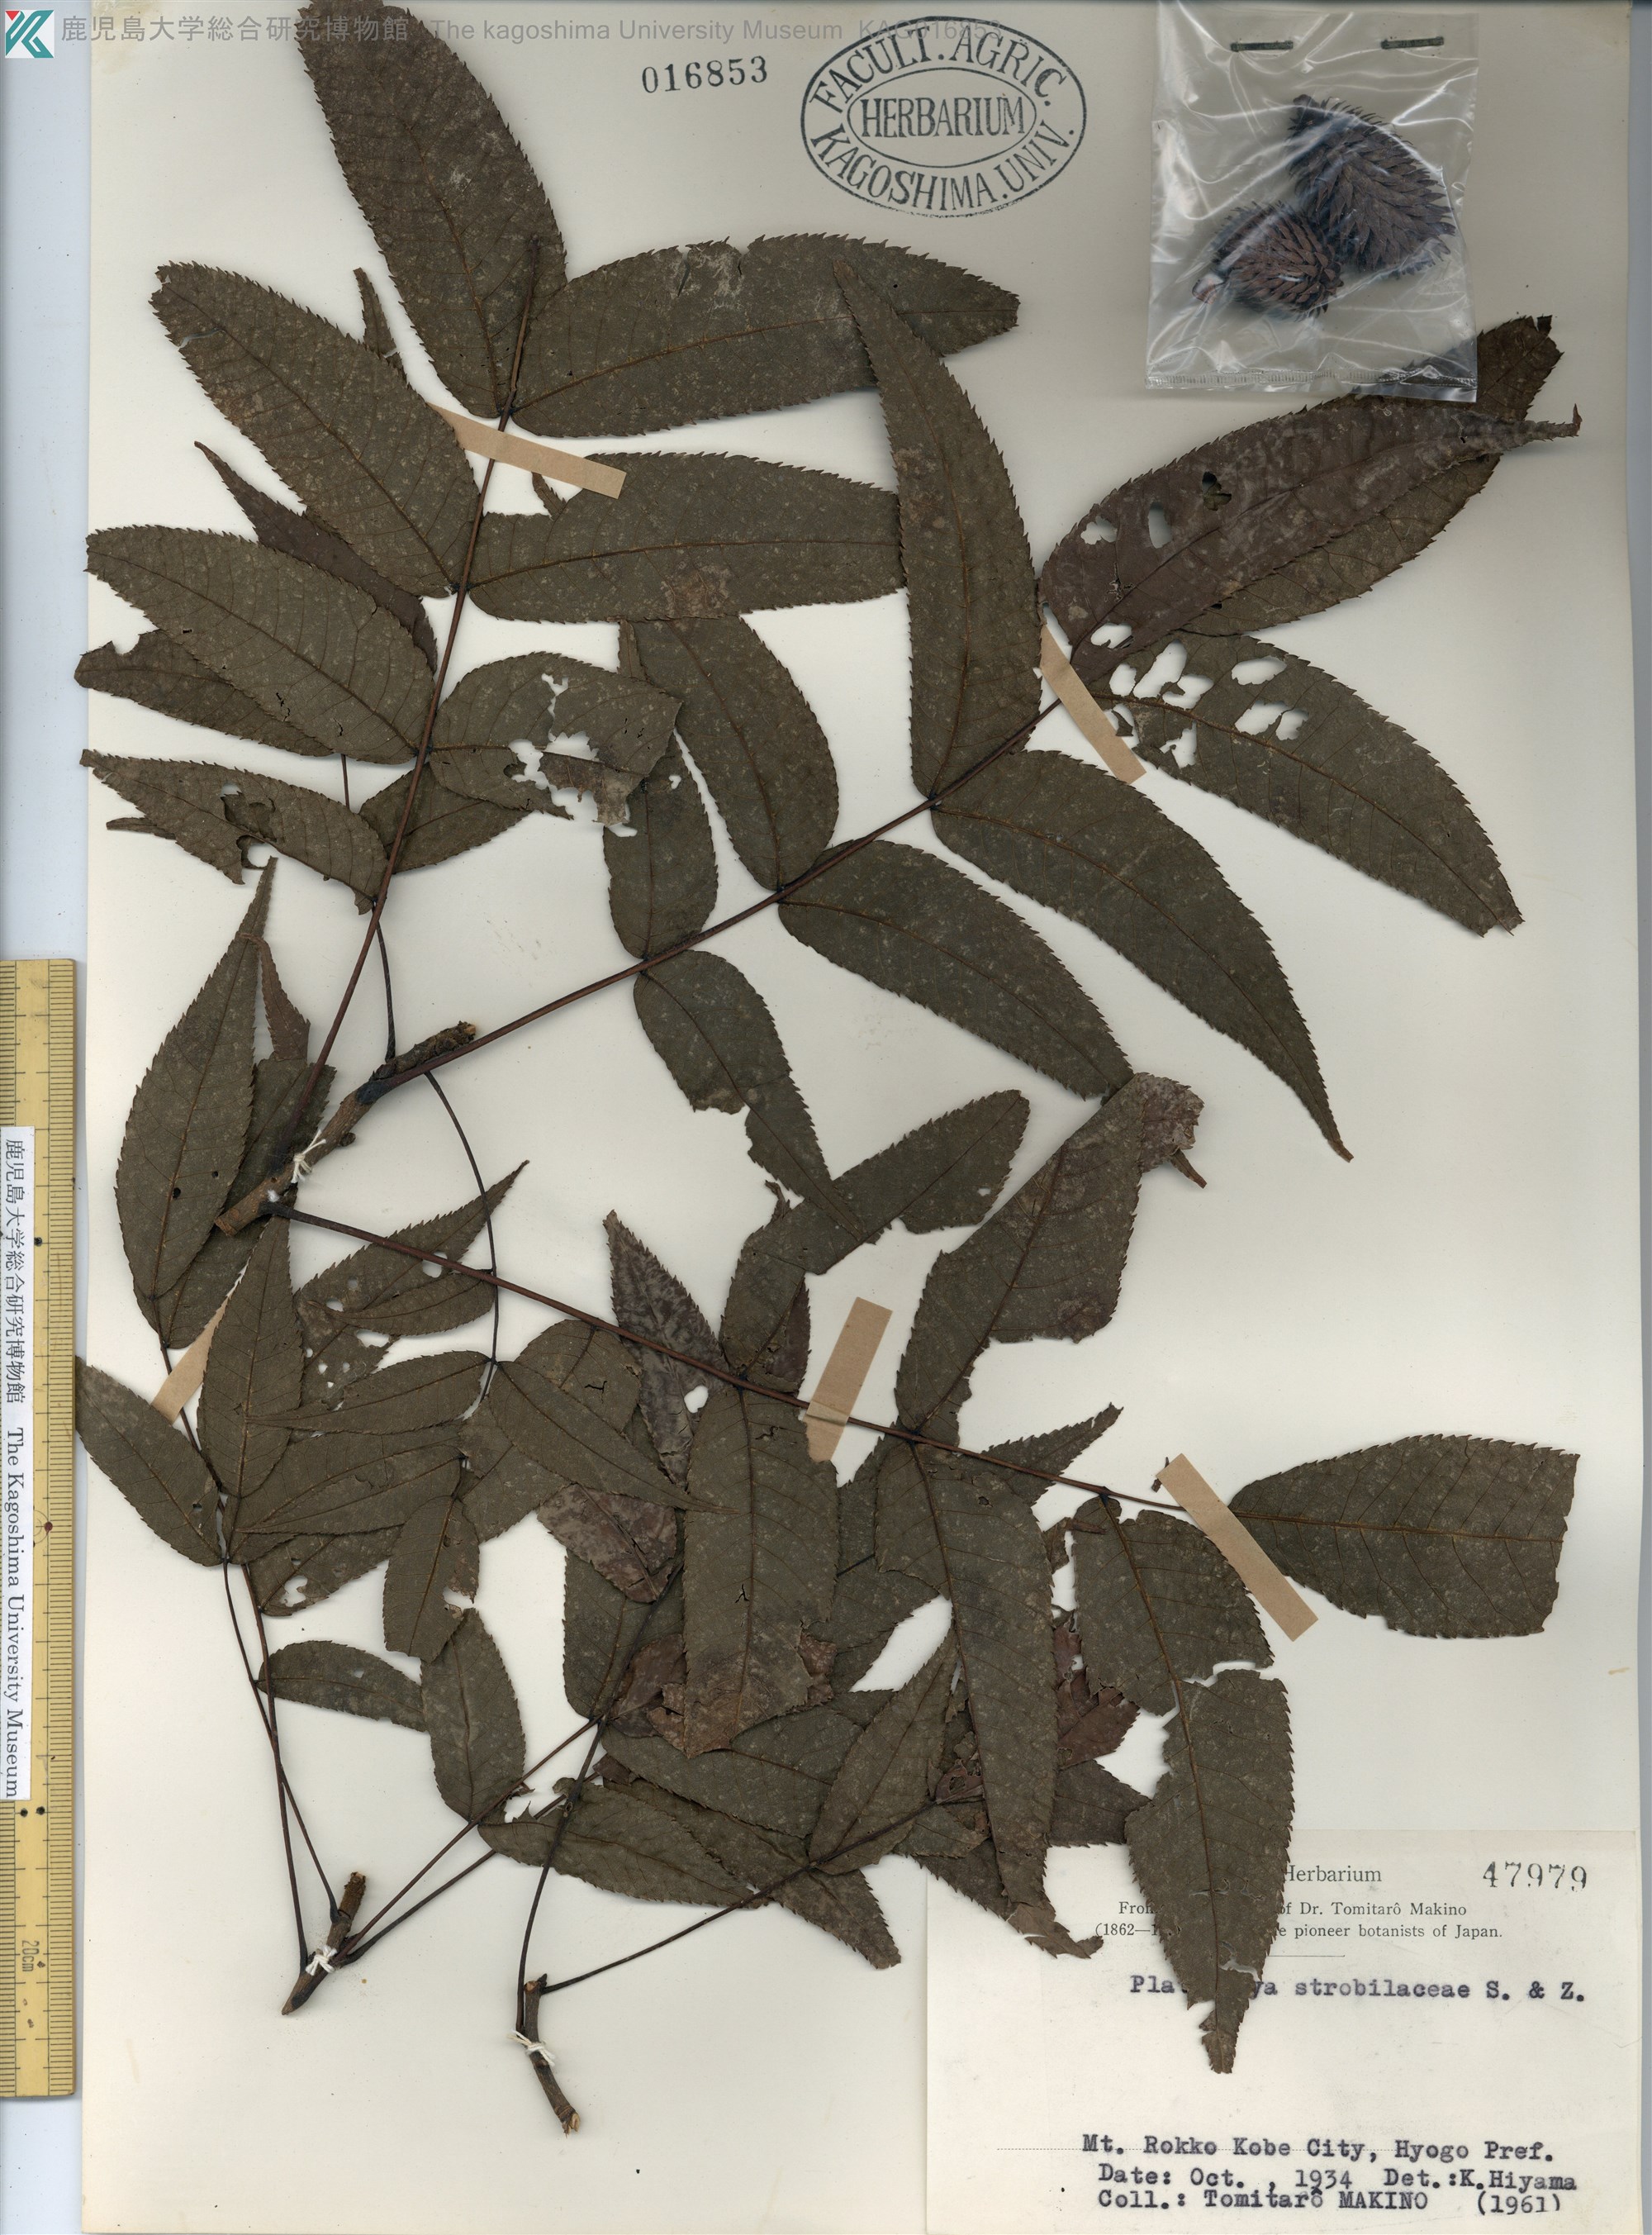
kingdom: Plantae
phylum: Tracheophyta
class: Magnoliopsida
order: Fagales
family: Juglandaceae
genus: Platycarya
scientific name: Platycarya strobilacea
